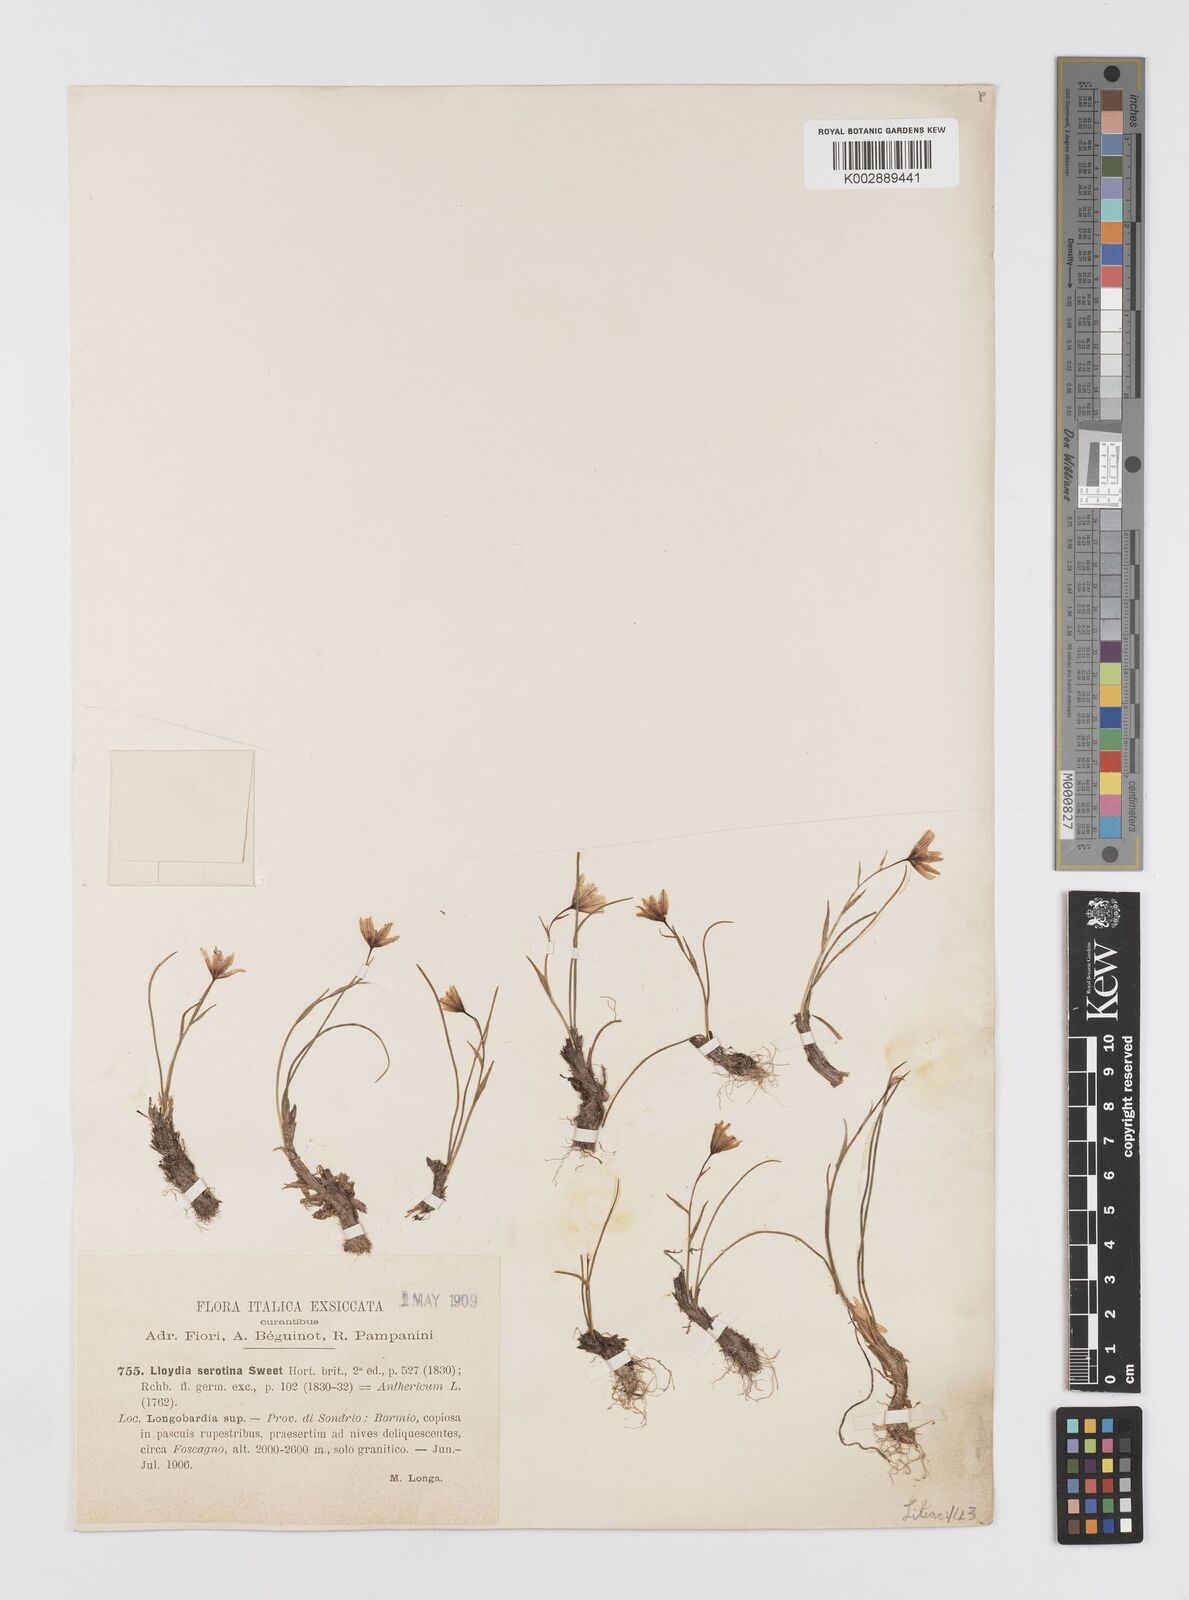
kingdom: Plantae
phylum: Tracheophyta
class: Liliopsida
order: Liliales
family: Liliaceae
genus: Gagea
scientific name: Gagea
